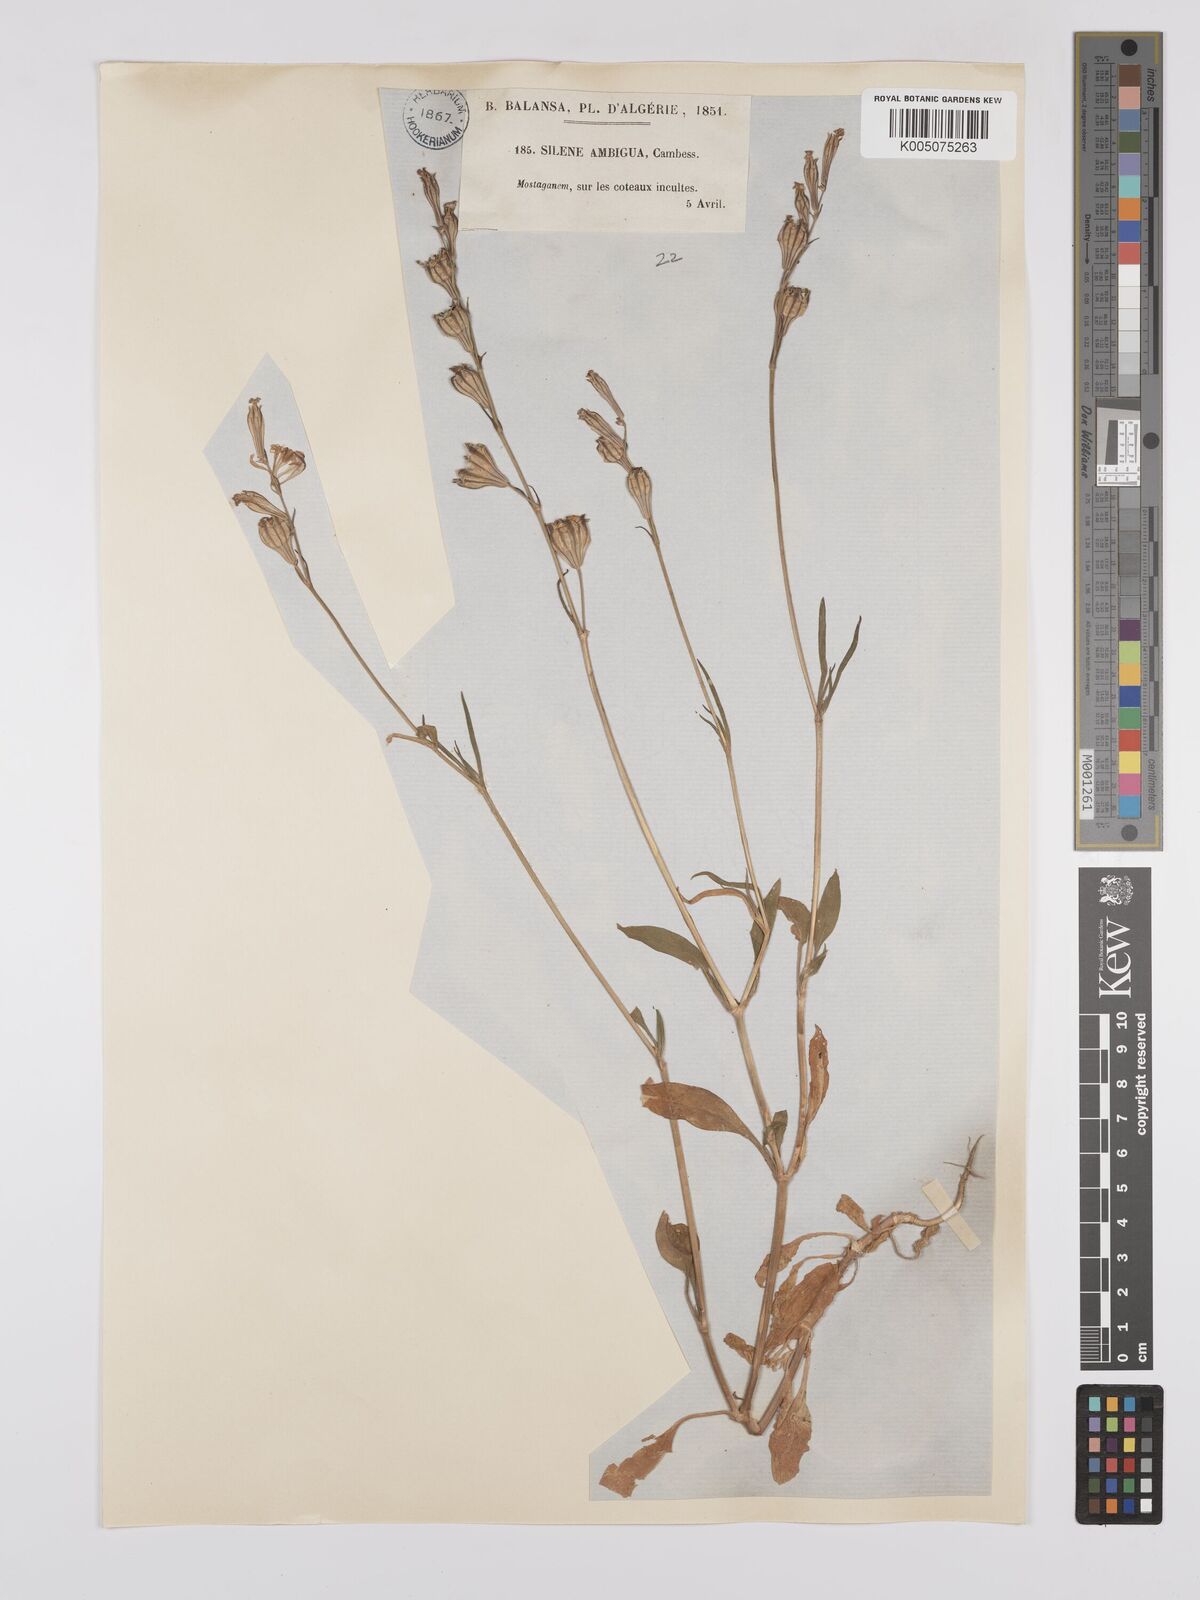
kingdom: Plantae
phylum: Tracheophyta
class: Magnoliopsida
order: Caryophyllales
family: Caryophyllaceae
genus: Silene
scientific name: Silene secundiflora
